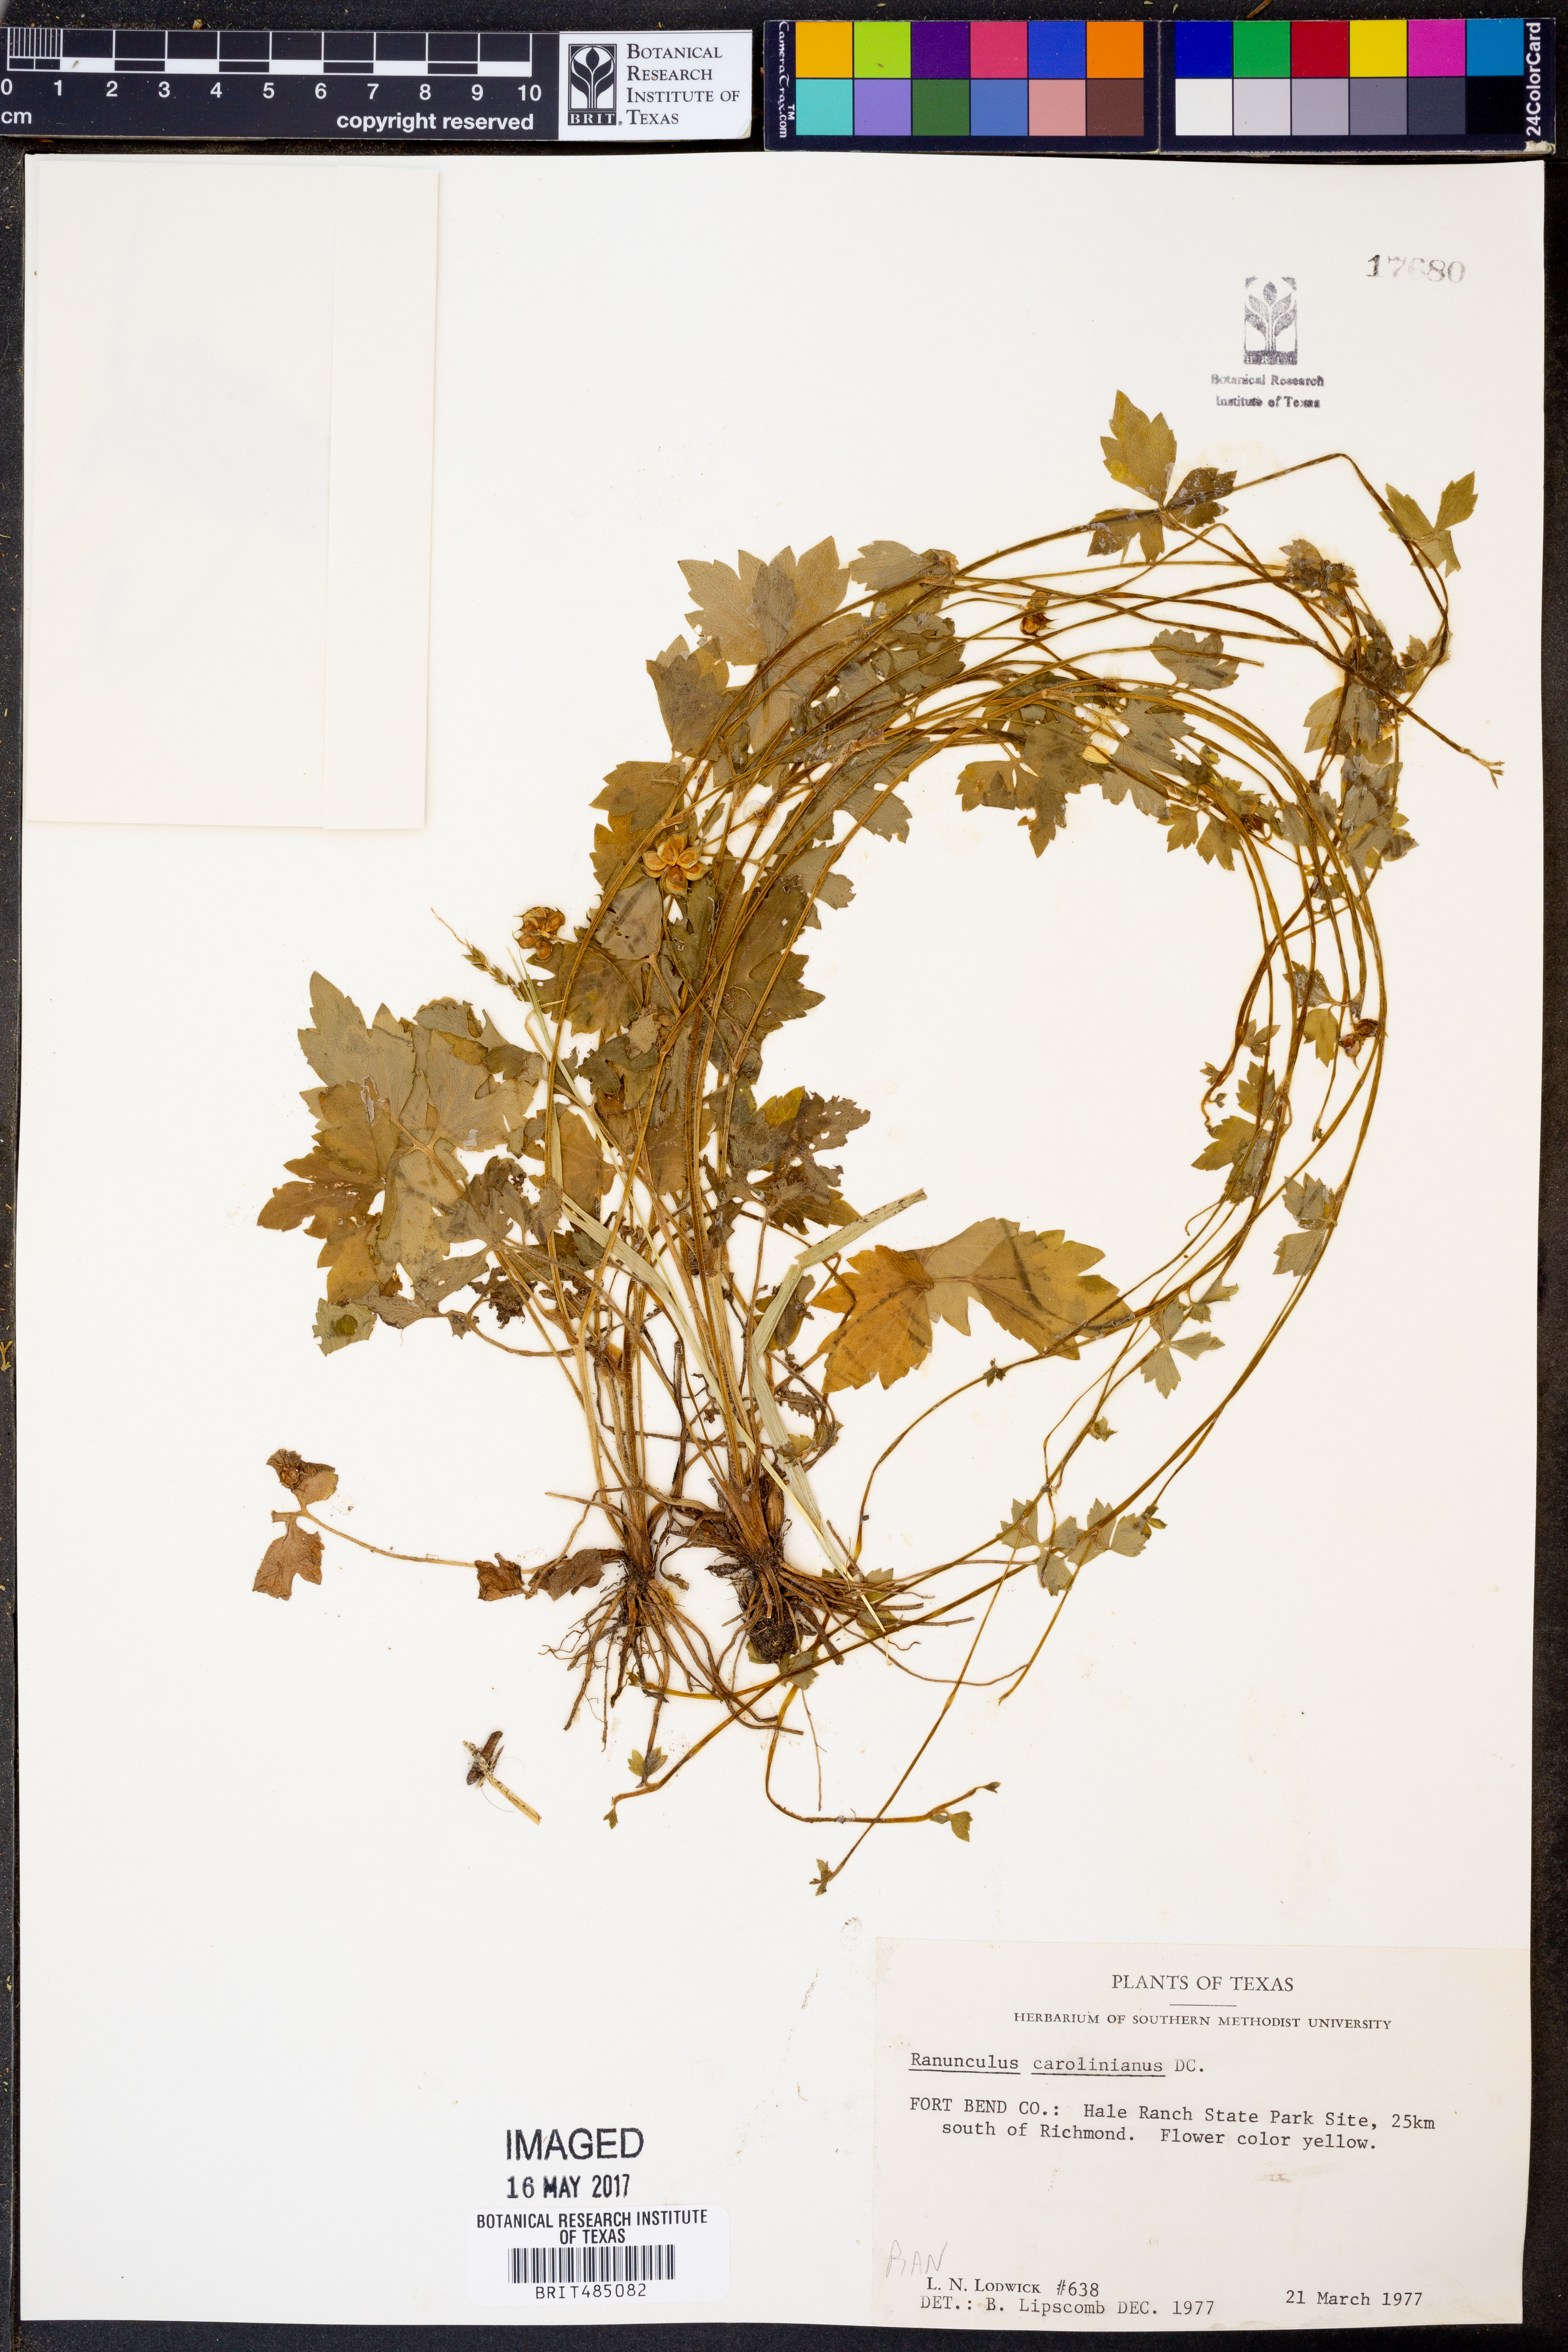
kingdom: Plantae
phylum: Tracheophyta
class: Magnoliopsida
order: Ranunculales
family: Ranunculaceae
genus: Ranunculus
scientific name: Ranunculus hispidus
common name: Bristly buttercup
